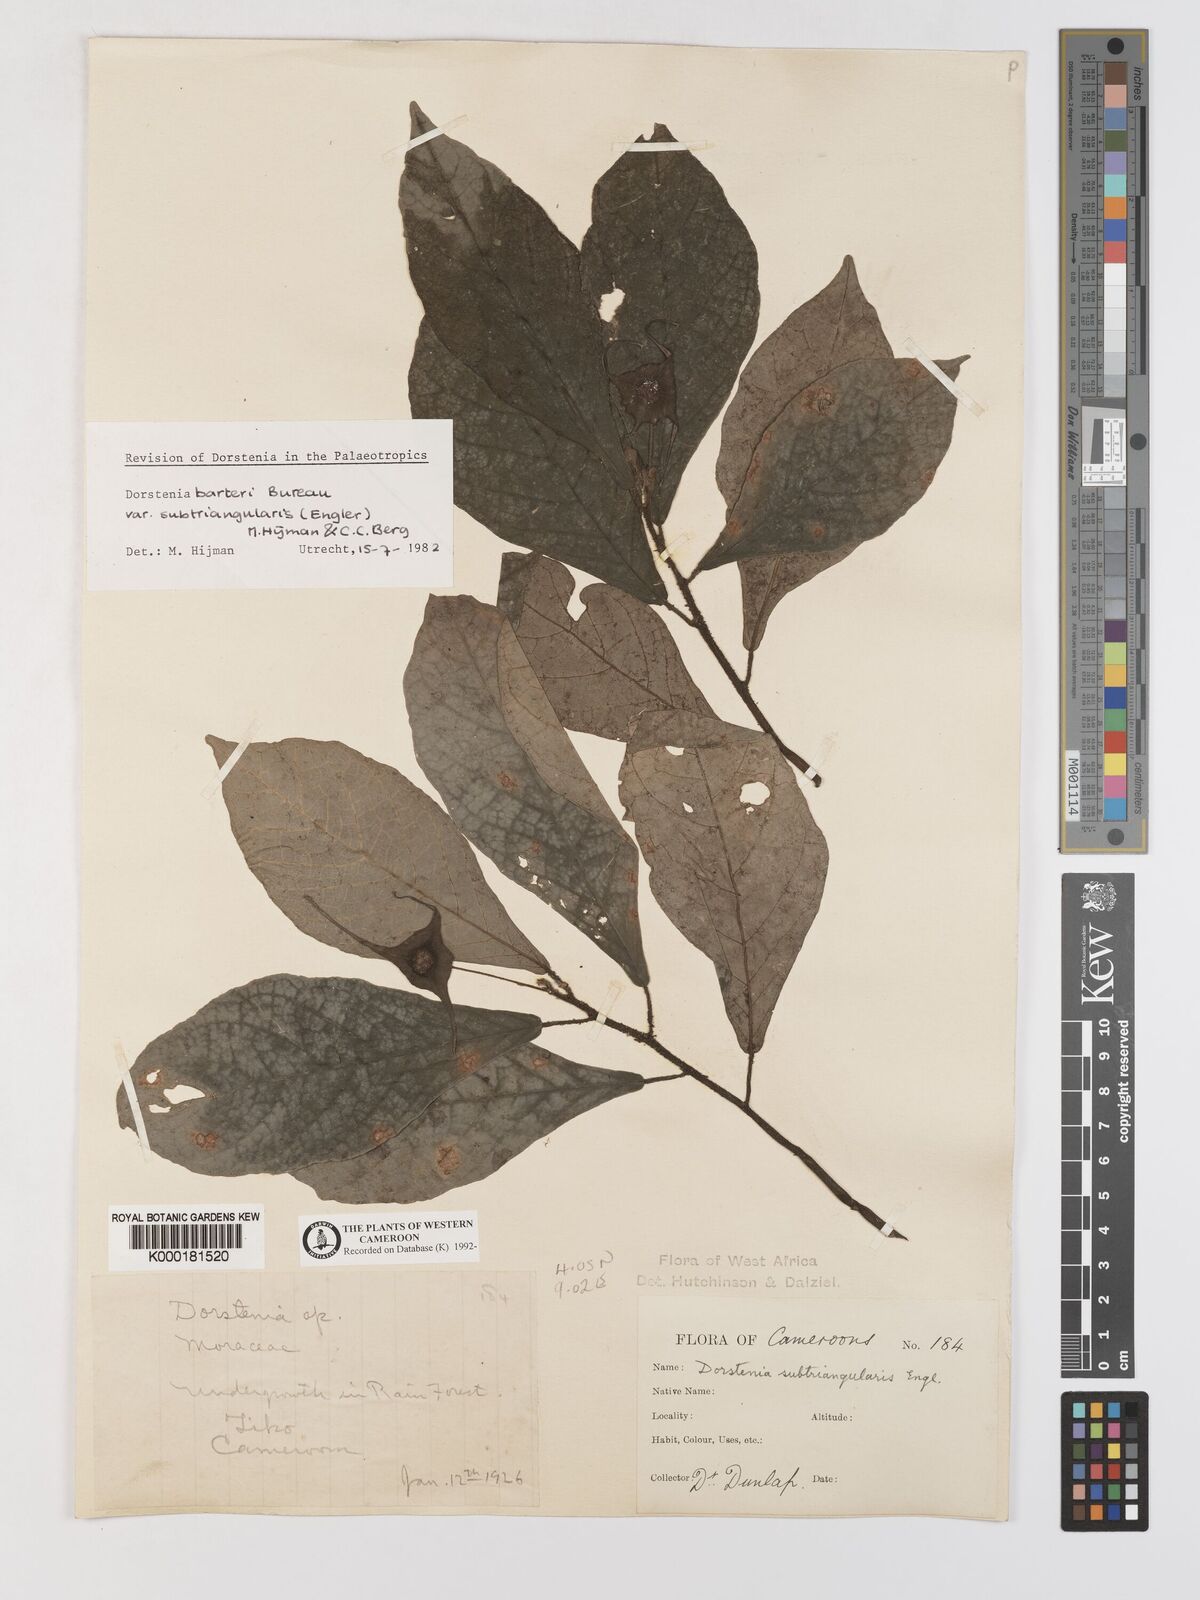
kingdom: Plantae
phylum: Tracheophyta
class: Magnoliopsida
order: Rosales
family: Moraceae
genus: Dorstenia
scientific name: Dorstenia barteri
